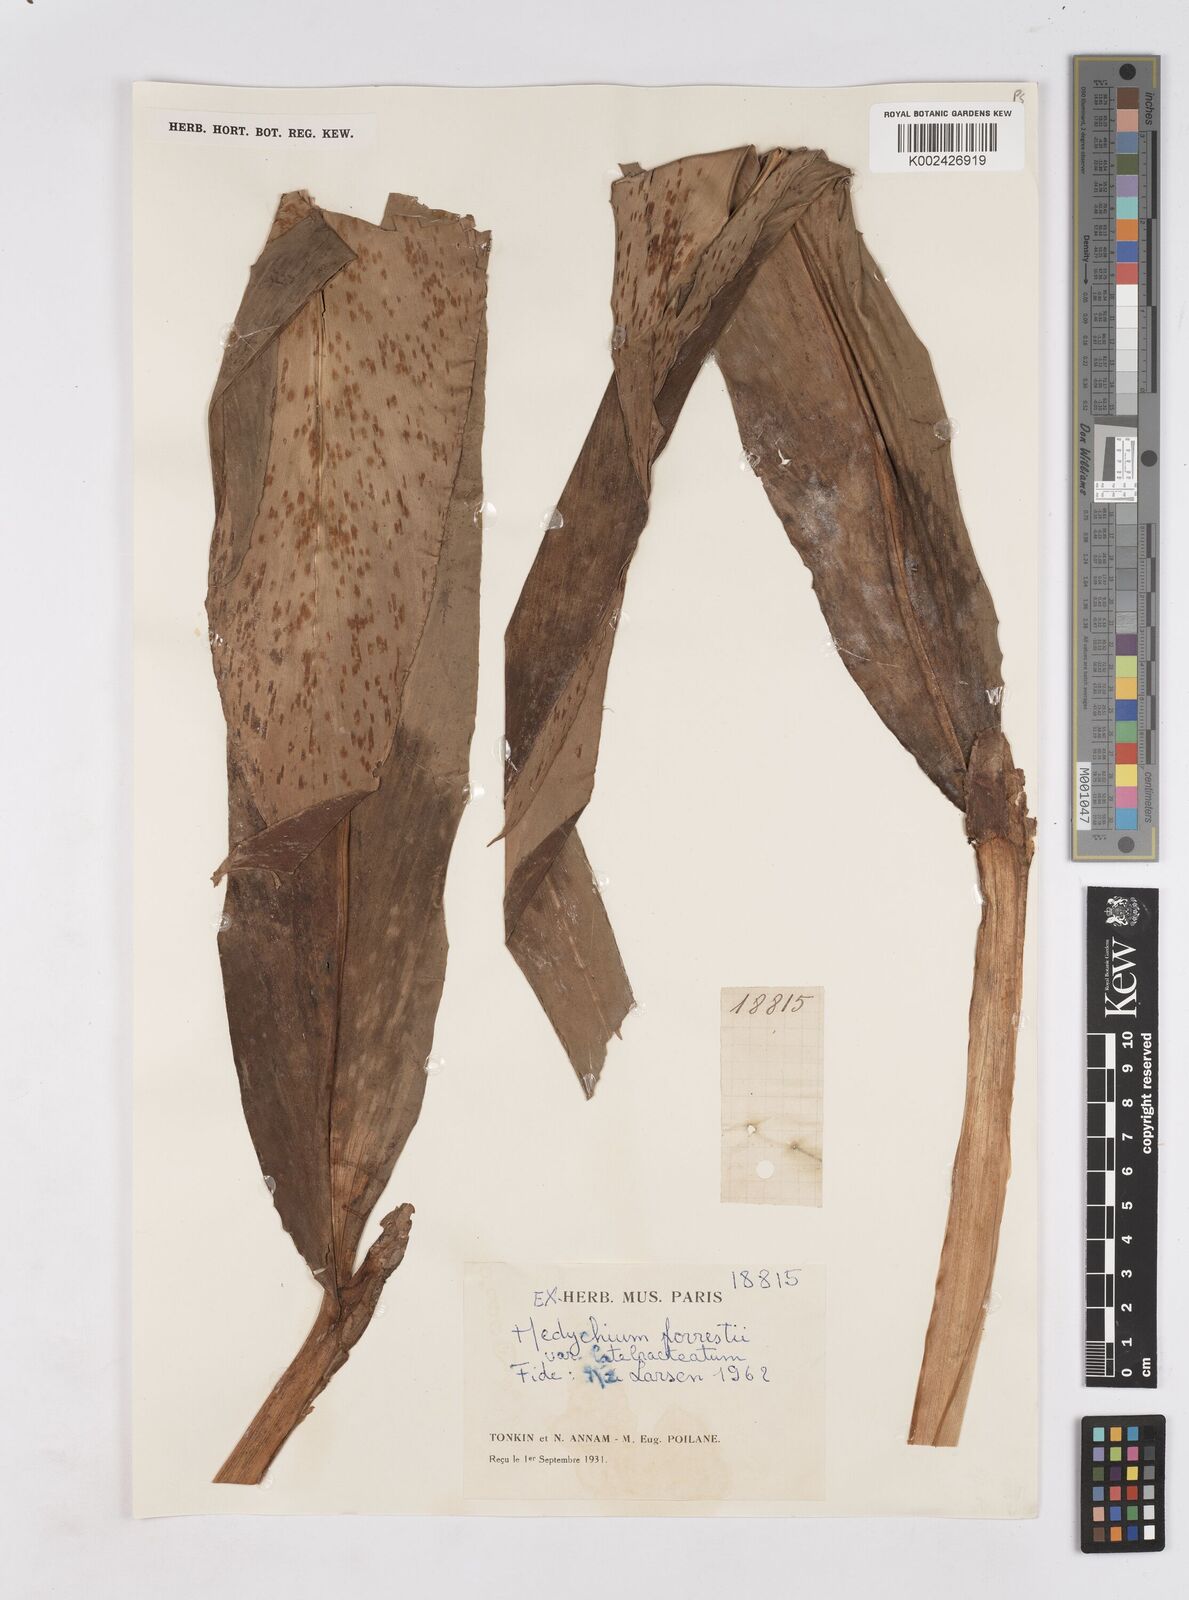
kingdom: Plantae
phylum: Tracheophyta
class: Liliopsida
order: Zingiberales
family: Zingiberaceae
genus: Hedychium
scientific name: Hedychium forrestii
